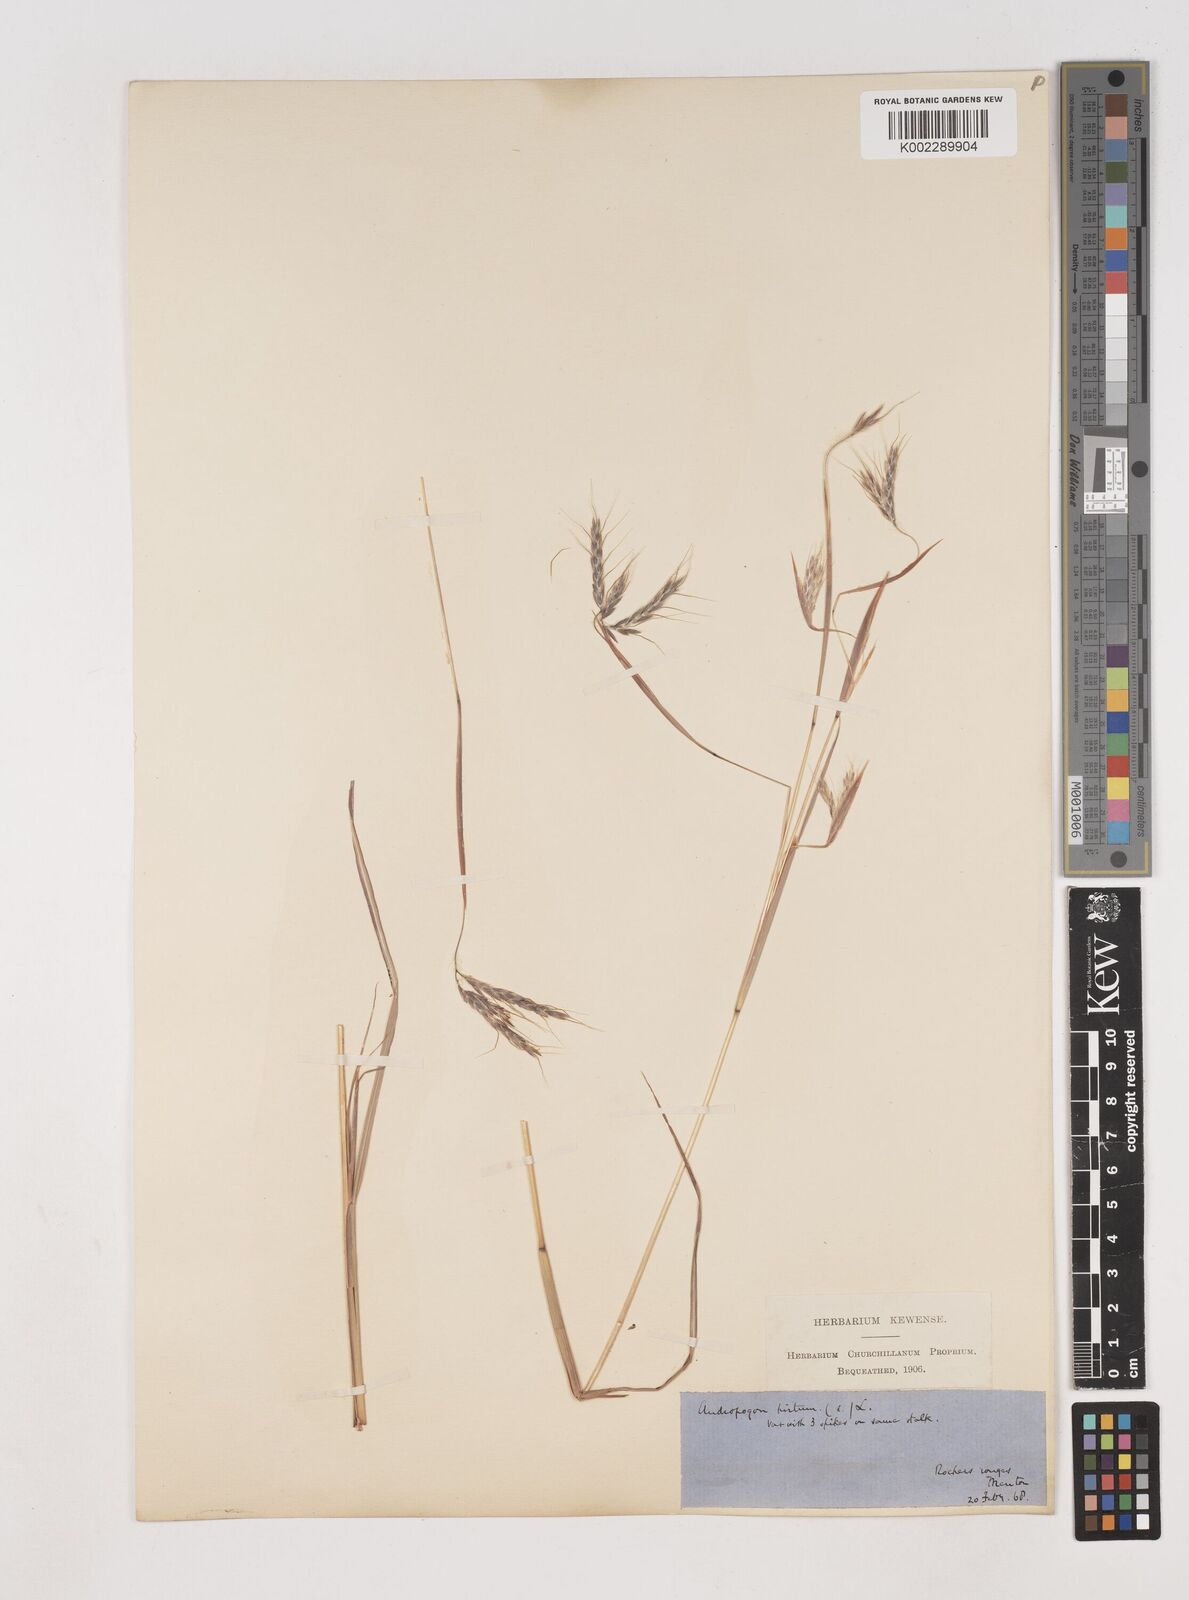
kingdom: Plantae
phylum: Tracheophyta
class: Liliopsida
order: Poales
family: Poaceae
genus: Hyparrhenia
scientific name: Hyparrhenia hirta
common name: Thatching grass
